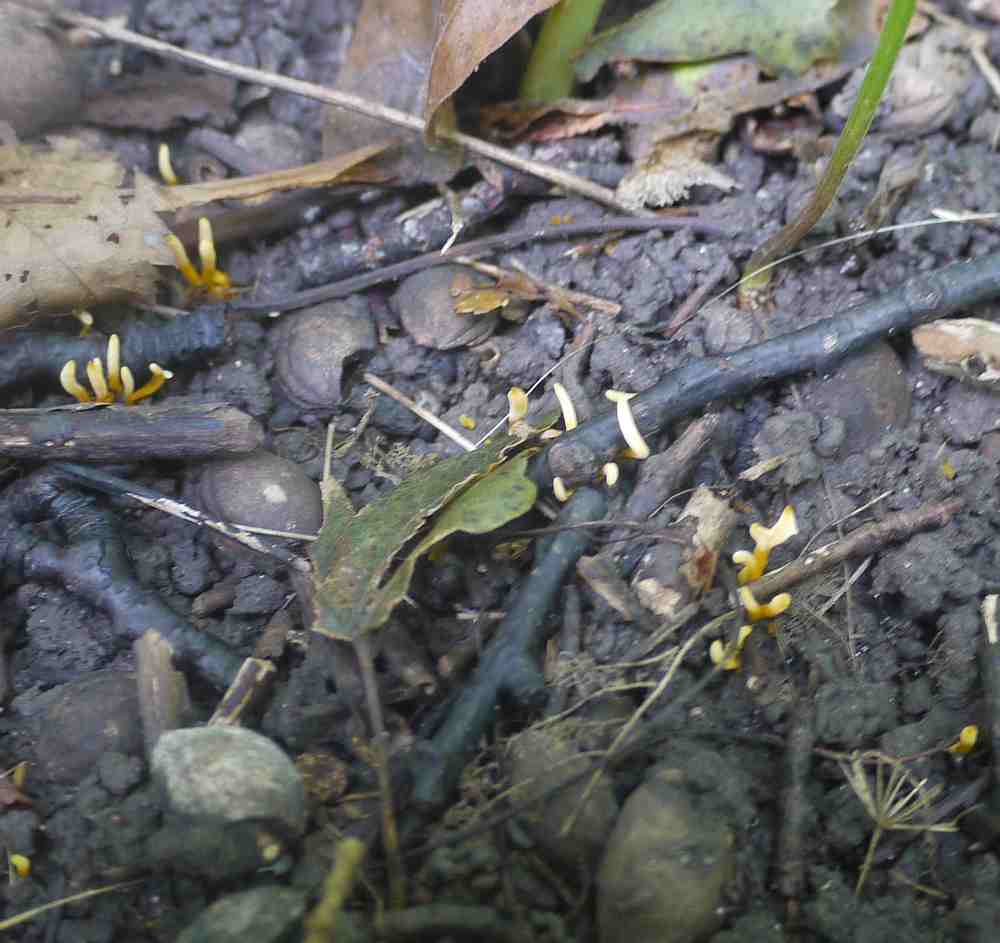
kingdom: Fungi
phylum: Basidiomycota
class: Agaricomycetes
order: Agaricales
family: Clavariaceae
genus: Clavulinopsis
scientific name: Clavulinopsis helvola
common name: orangegul køllesvamp
